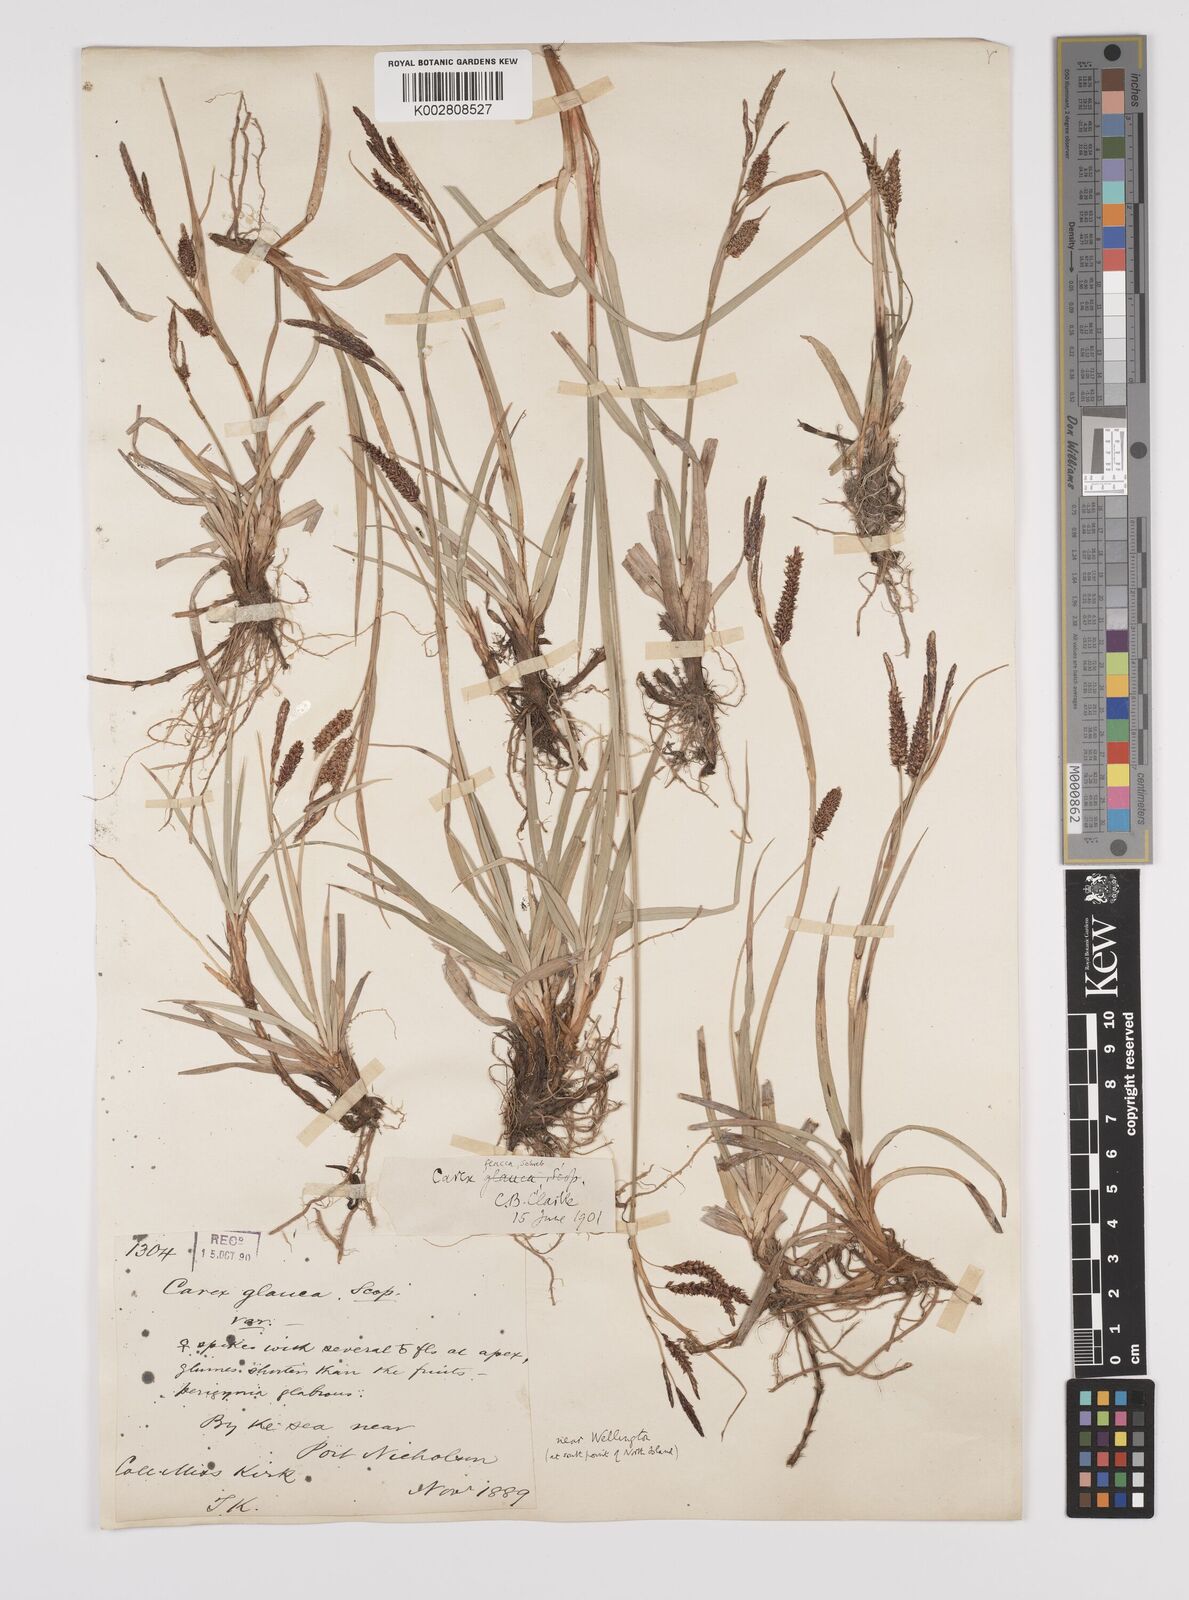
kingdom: Plantae
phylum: Tracheophyta
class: Liliopsida
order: Poales
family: Cyperaceae
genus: Carex
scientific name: Carex flacca
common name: Glaucous sedge
